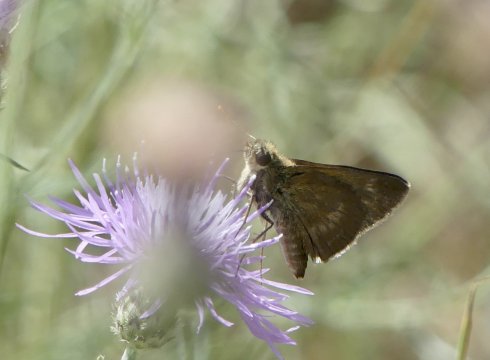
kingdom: Animalia
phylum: Arthropoda
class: Insecta
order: Lepidoptera
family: Hesperiidae
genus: Polites
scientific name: Polites egeremet
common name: Northern Broken-Dash
